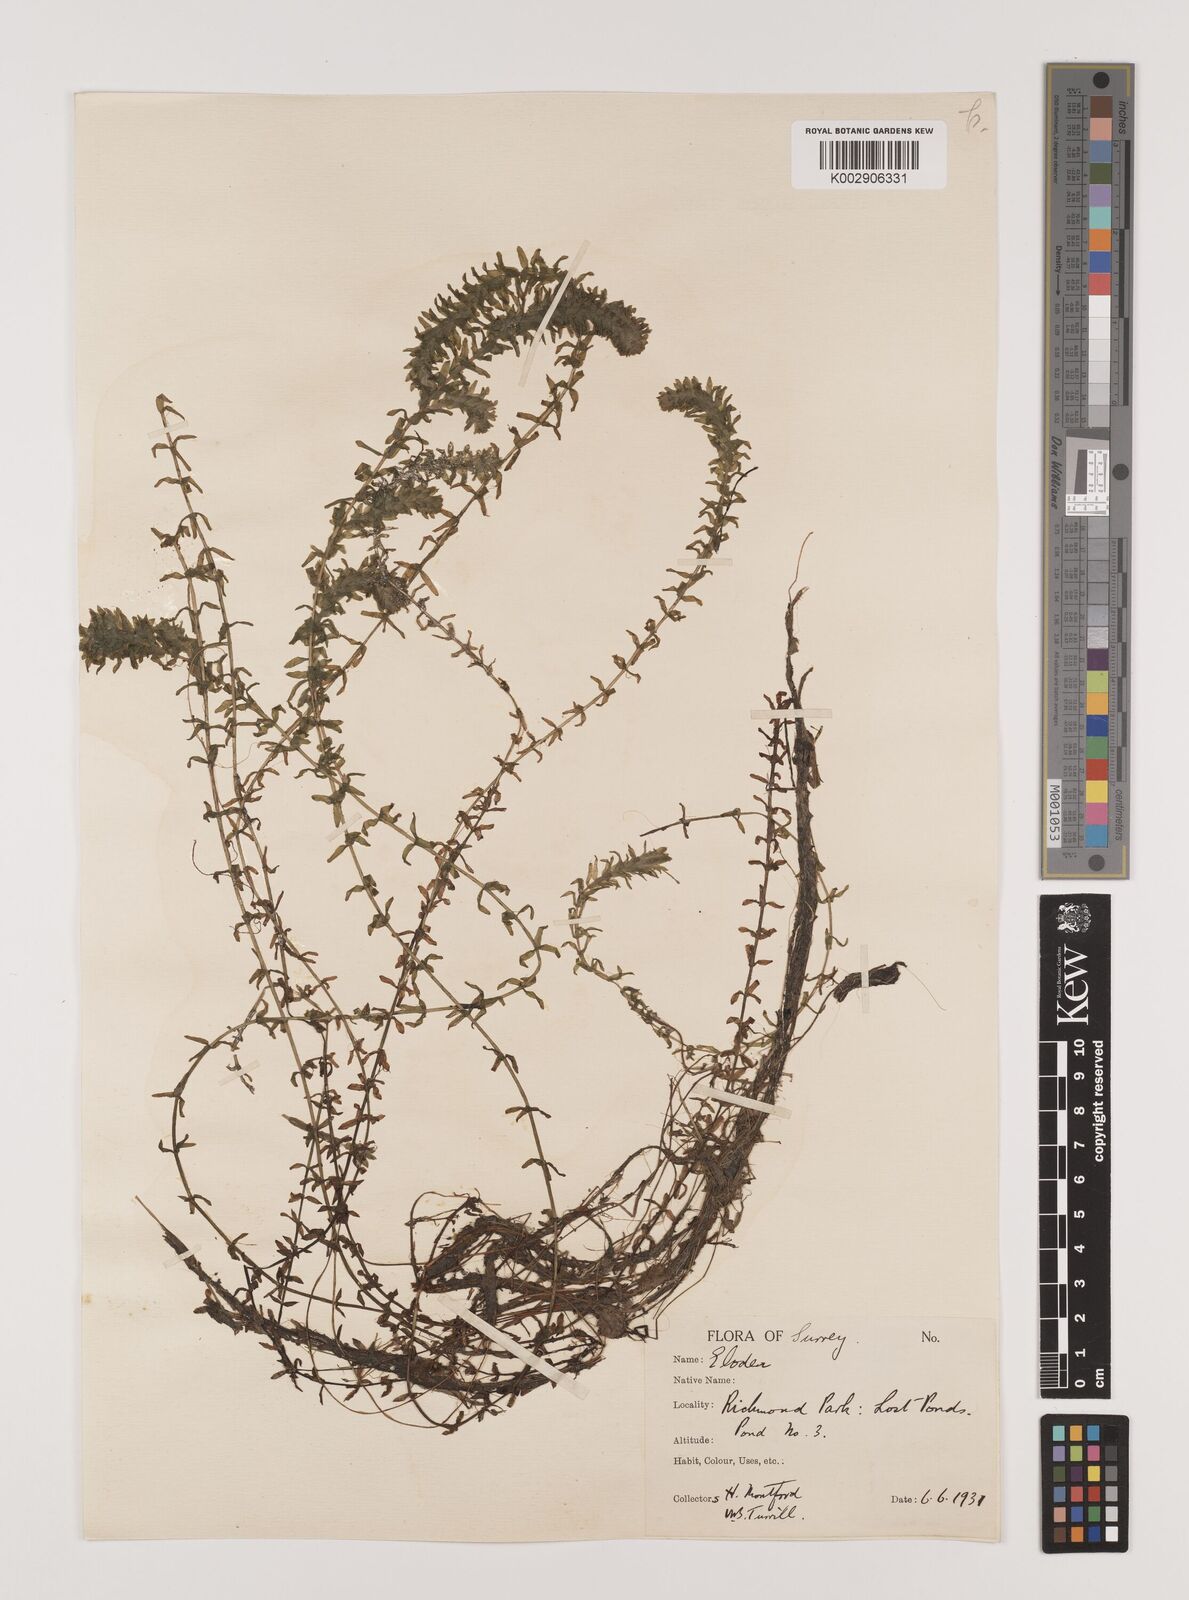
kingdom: Plantae
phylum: Tracheophyta
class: Liliopsida
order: Alismatales
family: Hydrocharitaceae
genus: Elodea
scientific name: Elodea canadensis
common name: Canadian waterweed
